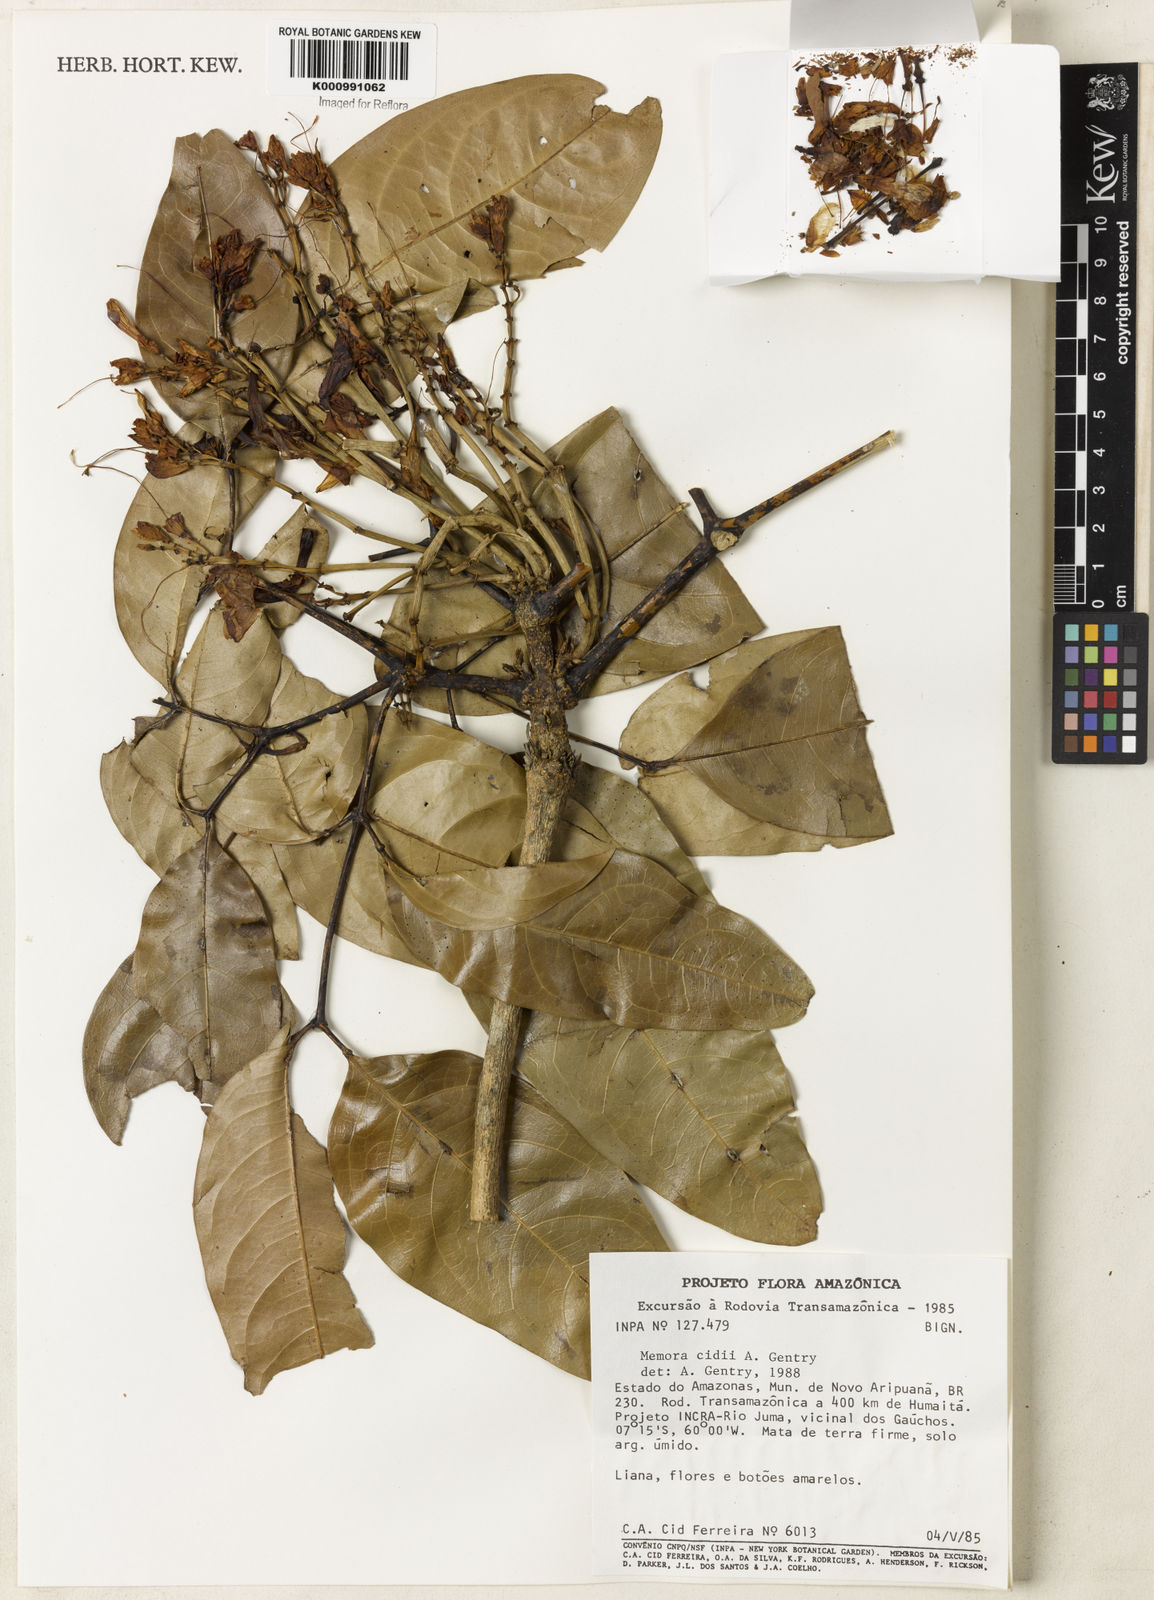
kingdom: Plantae
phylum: Tracheophyta
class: Magnoliopsida
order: Lamiales
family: Bignoniaceae
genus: Adenocalymma
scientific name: Adenocalymma cidii
